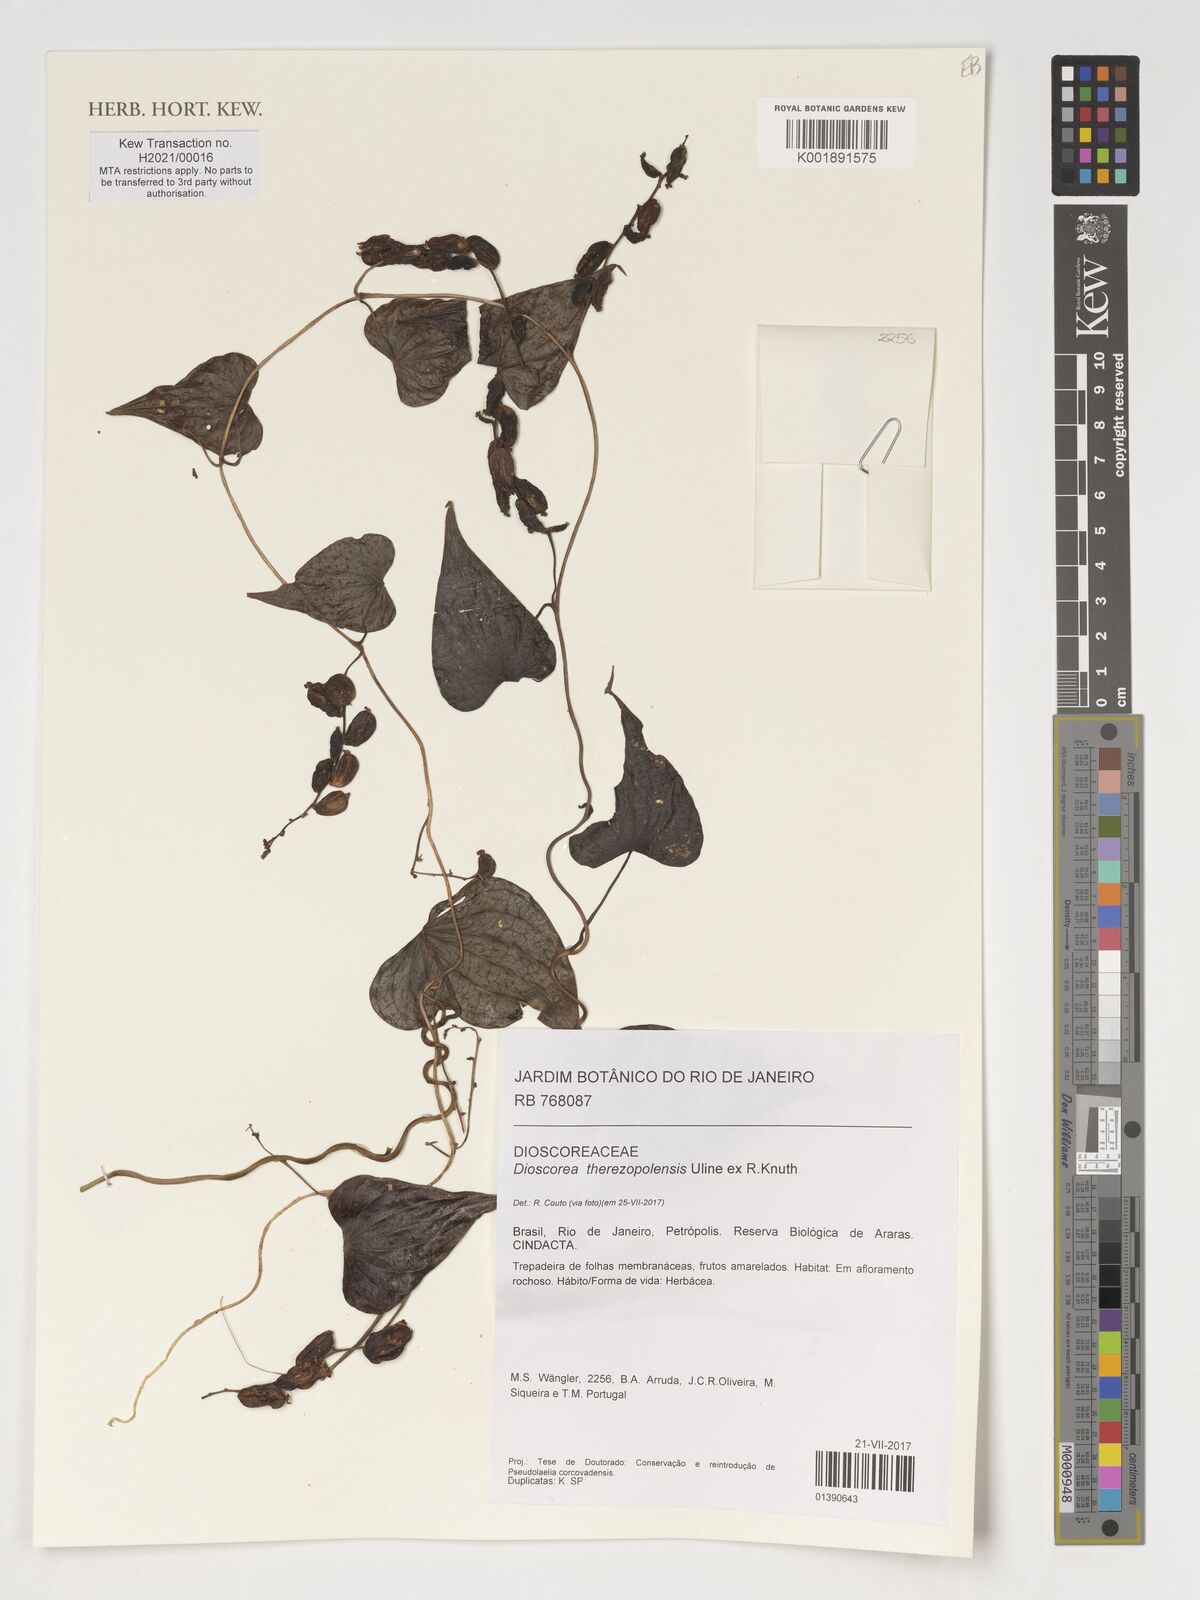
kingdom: Plantae
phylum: Tracheophyta
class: Liliopsida
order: Dioscoreales
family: Dioscoreaceae
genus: Dioscorea
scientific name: Dioscorea therezopolensis
